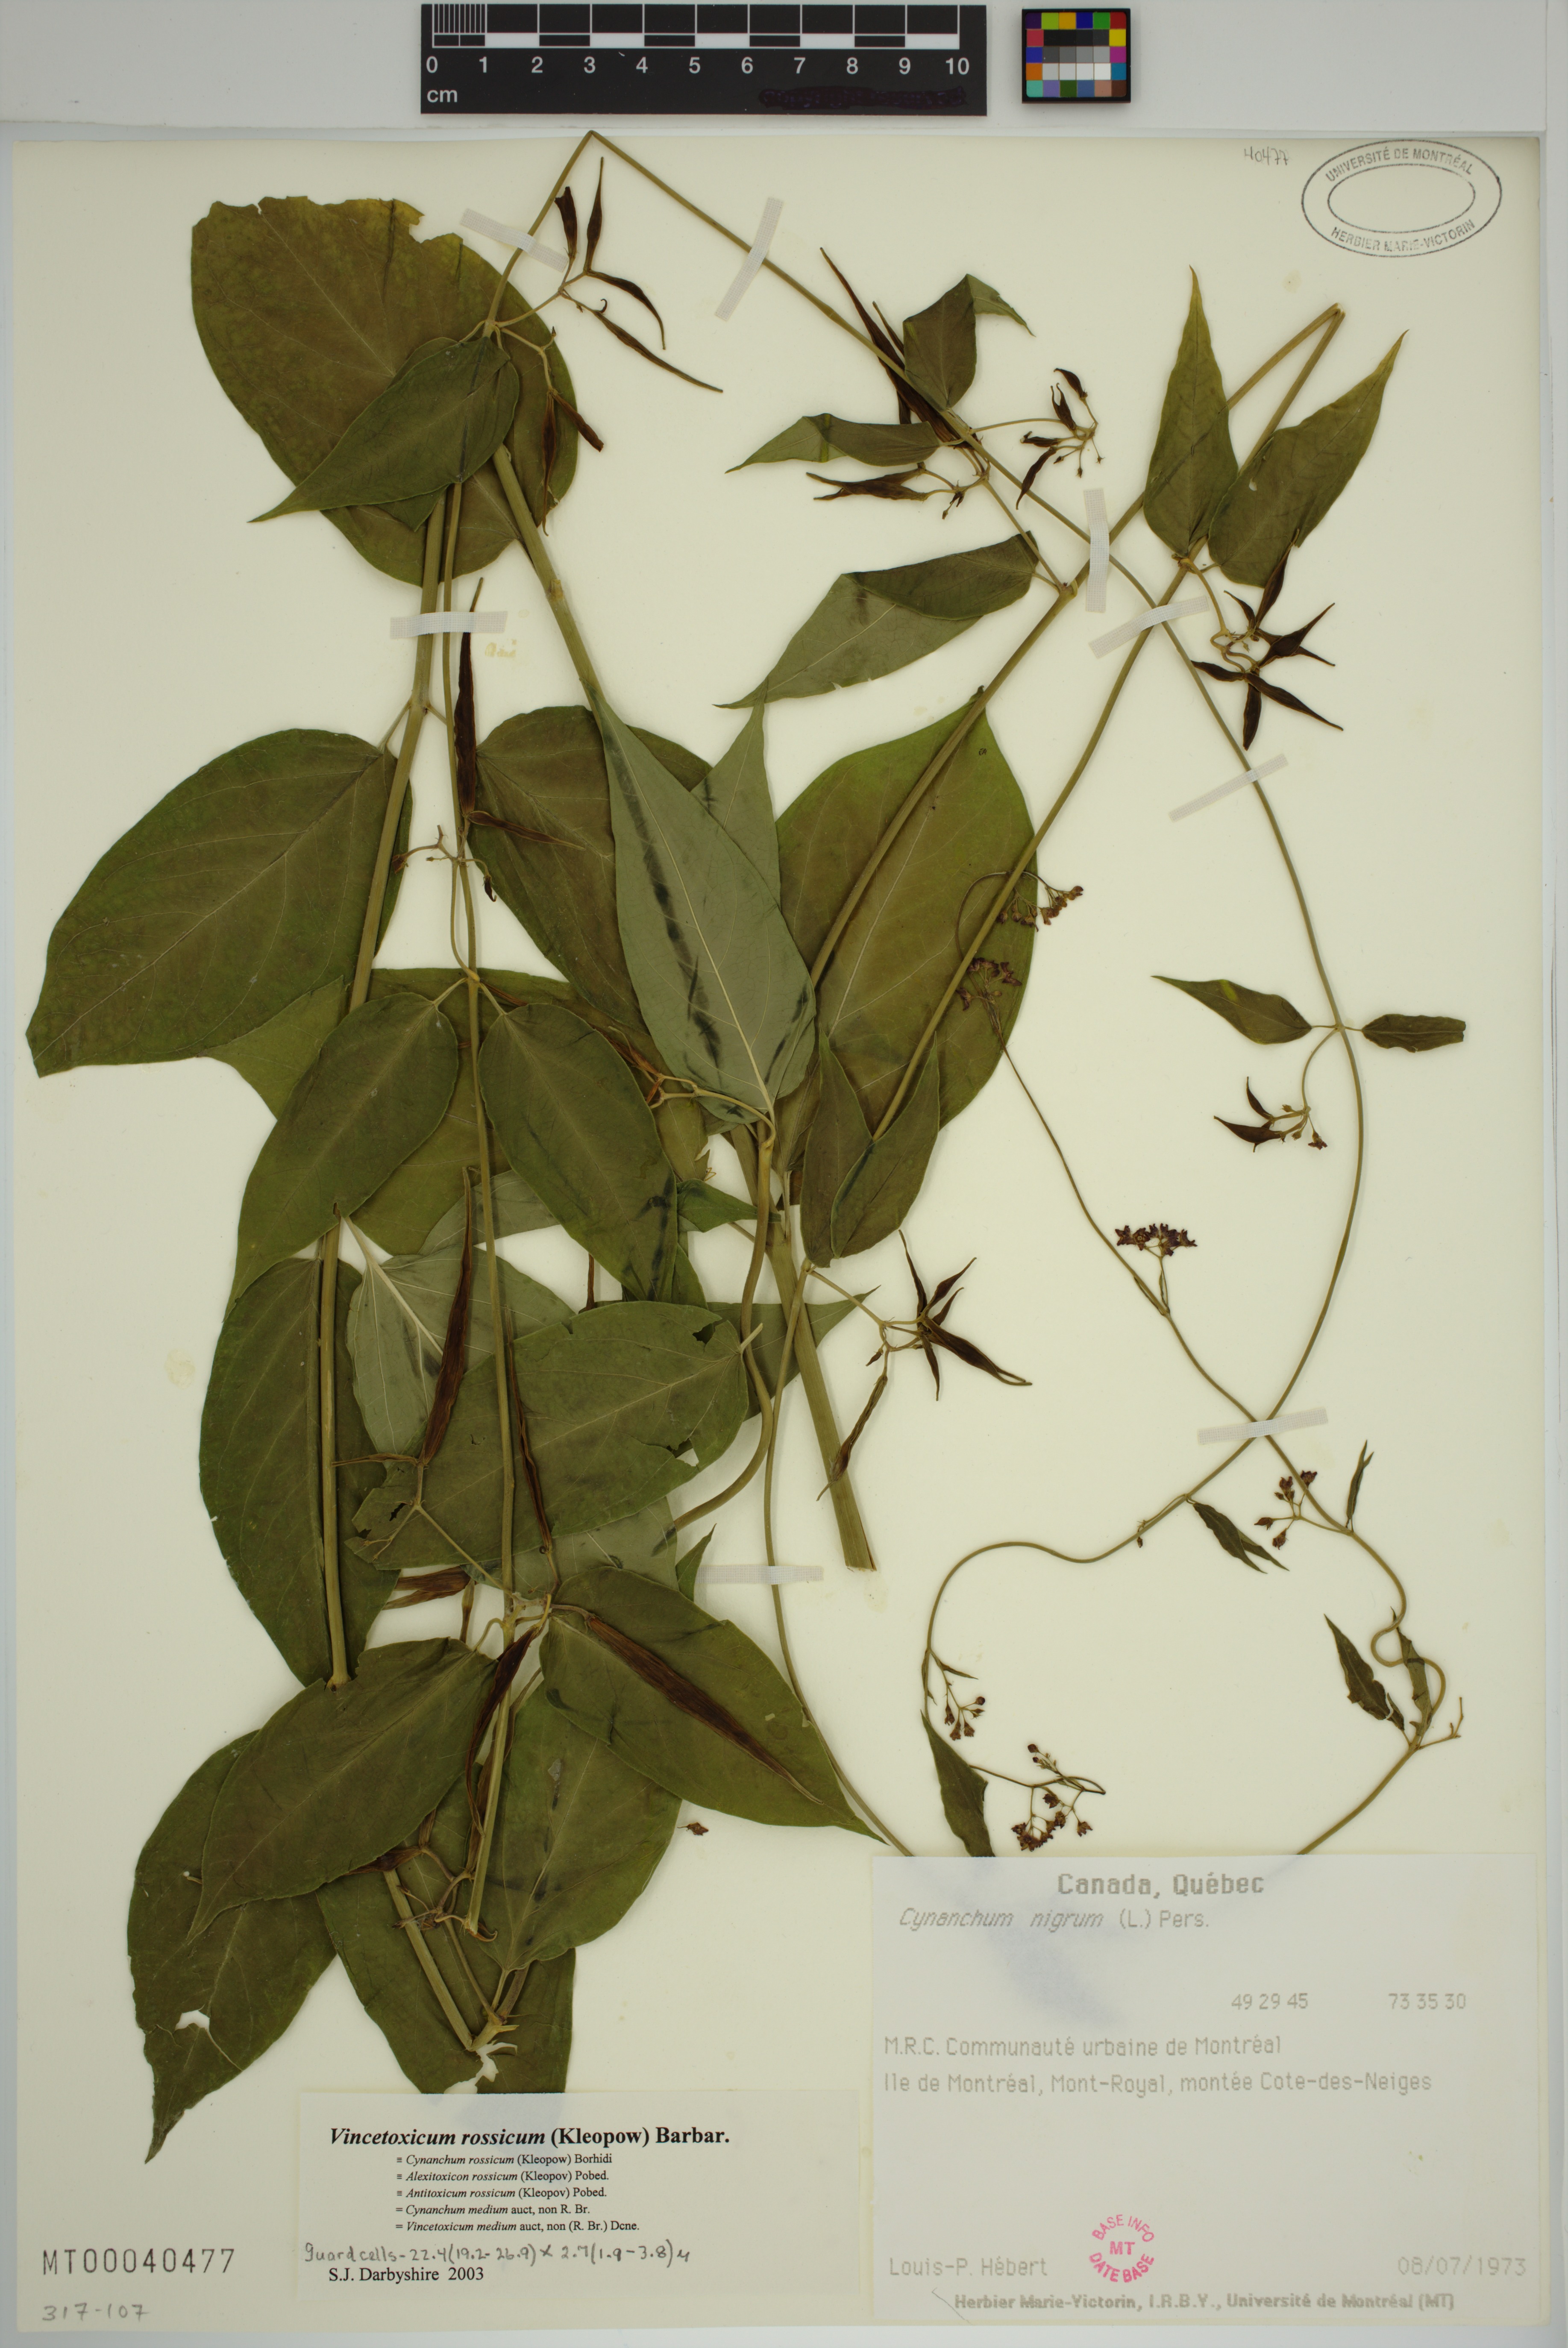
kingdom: Plantae
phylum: Tracheophyta
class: Magnoliopsida
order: Gentianales
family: Apocynaceae
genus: Vincetoxicum
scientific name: Vincetoxicum rossicum
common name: Dog-strangling vine
